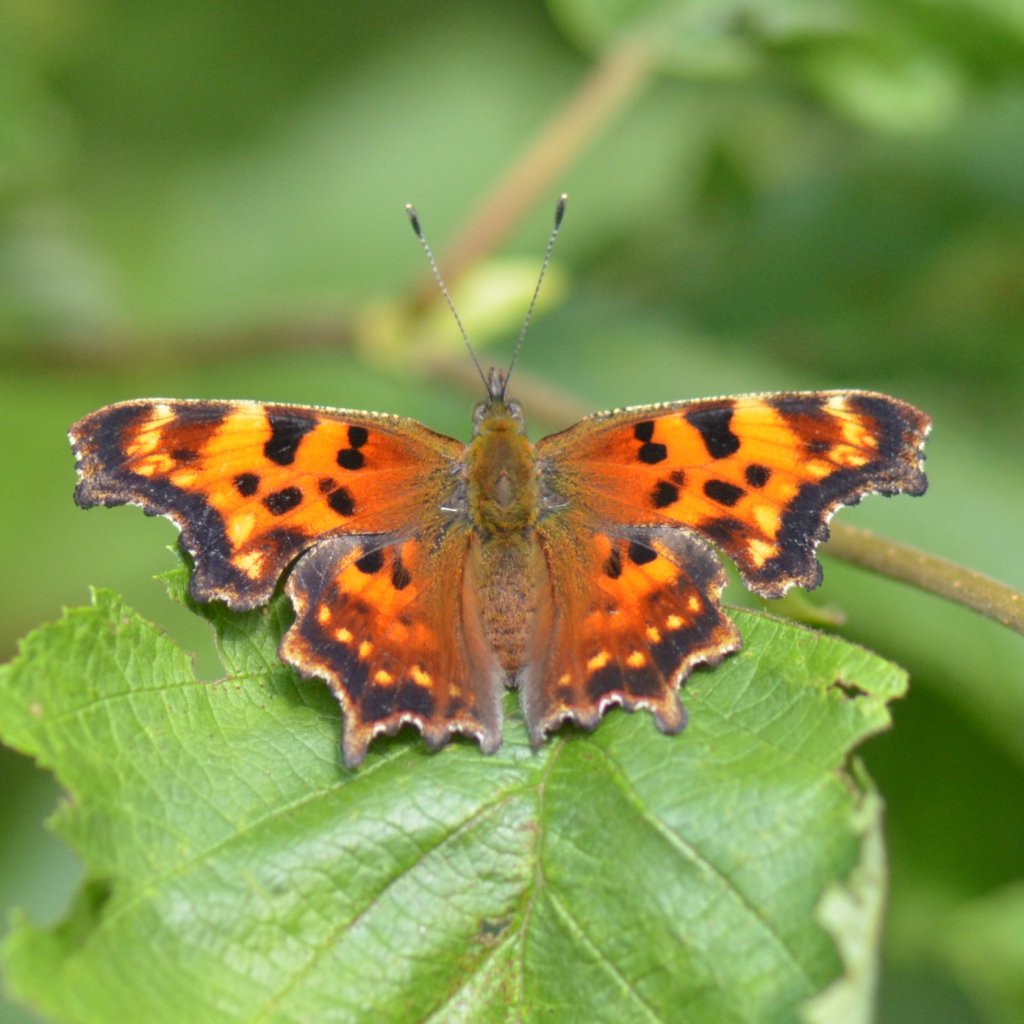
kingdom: Animalia
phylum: Arthropoda
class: Insecta
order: Lepidoptera
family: Nymphalidae
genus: Polygonia
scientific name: Polygonia faunus
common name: Green Comma
